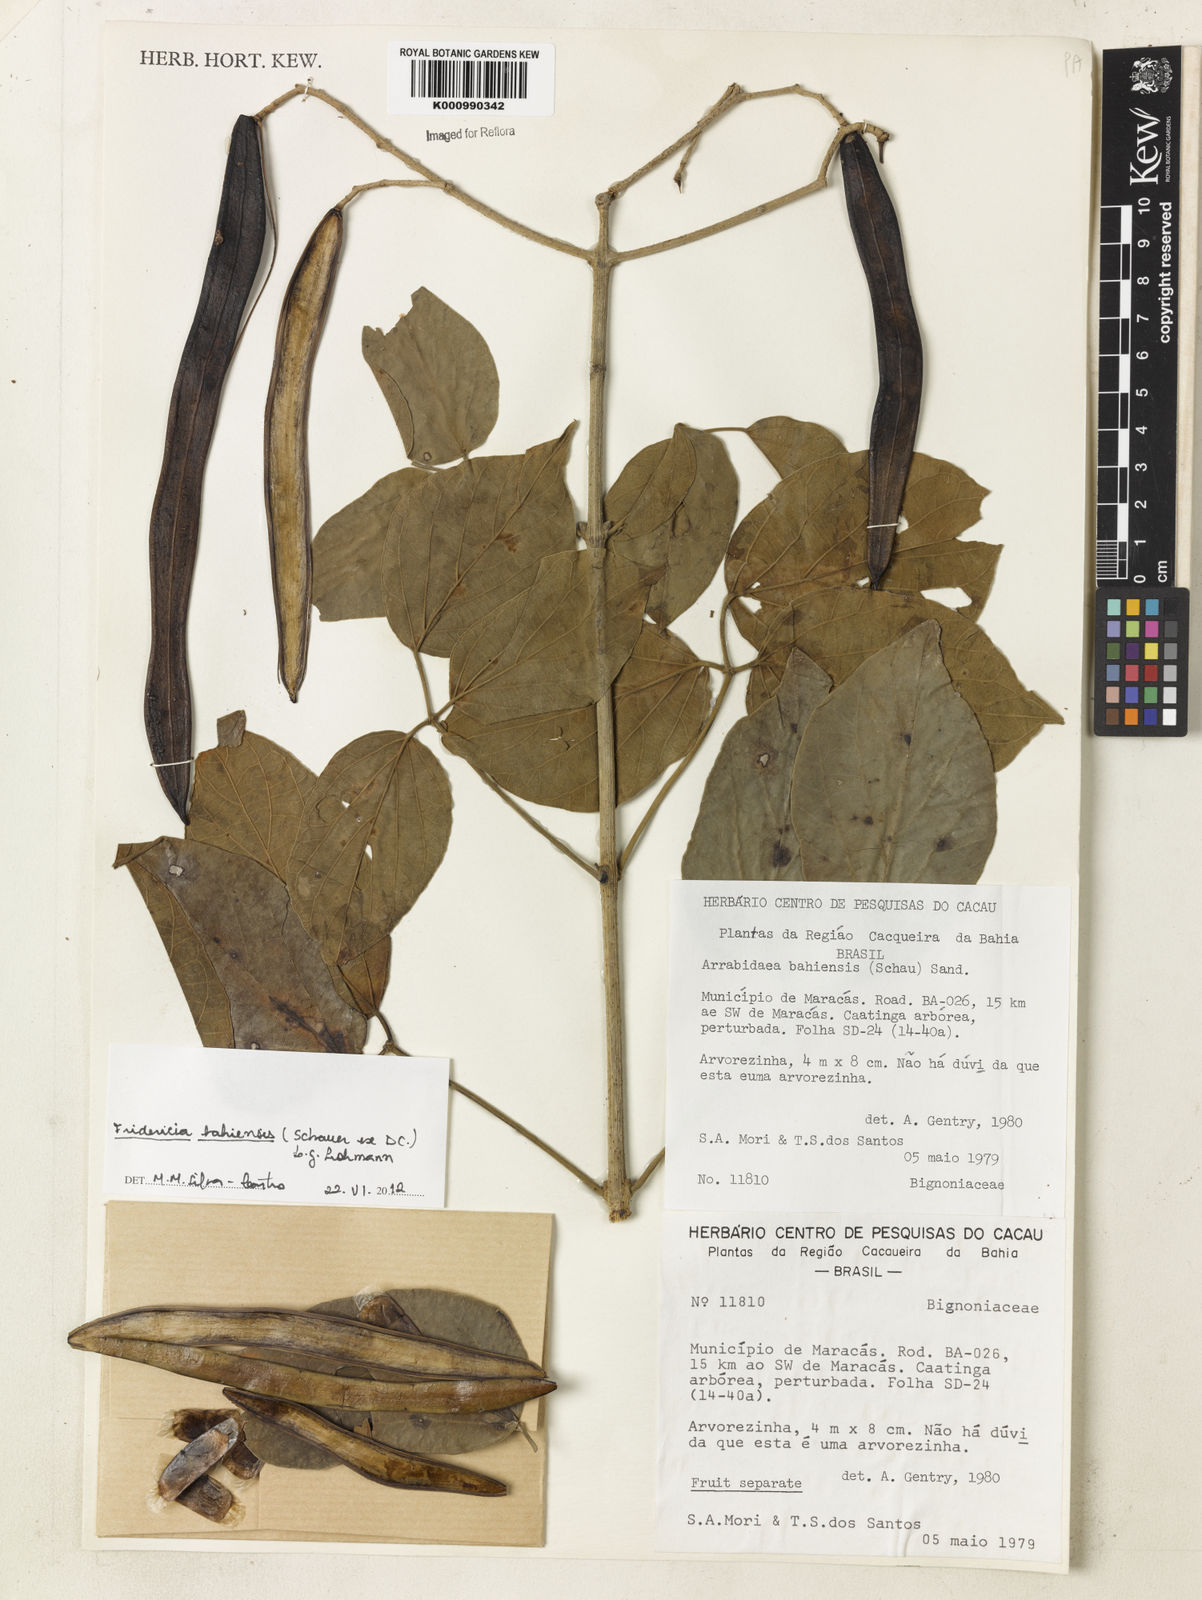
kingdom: Plantae
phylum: Tracheophyta
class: Magnoliopsida
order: Lamiales
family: Bignoniaceae
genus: Fridericia
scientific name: Fridericia bahiensis
